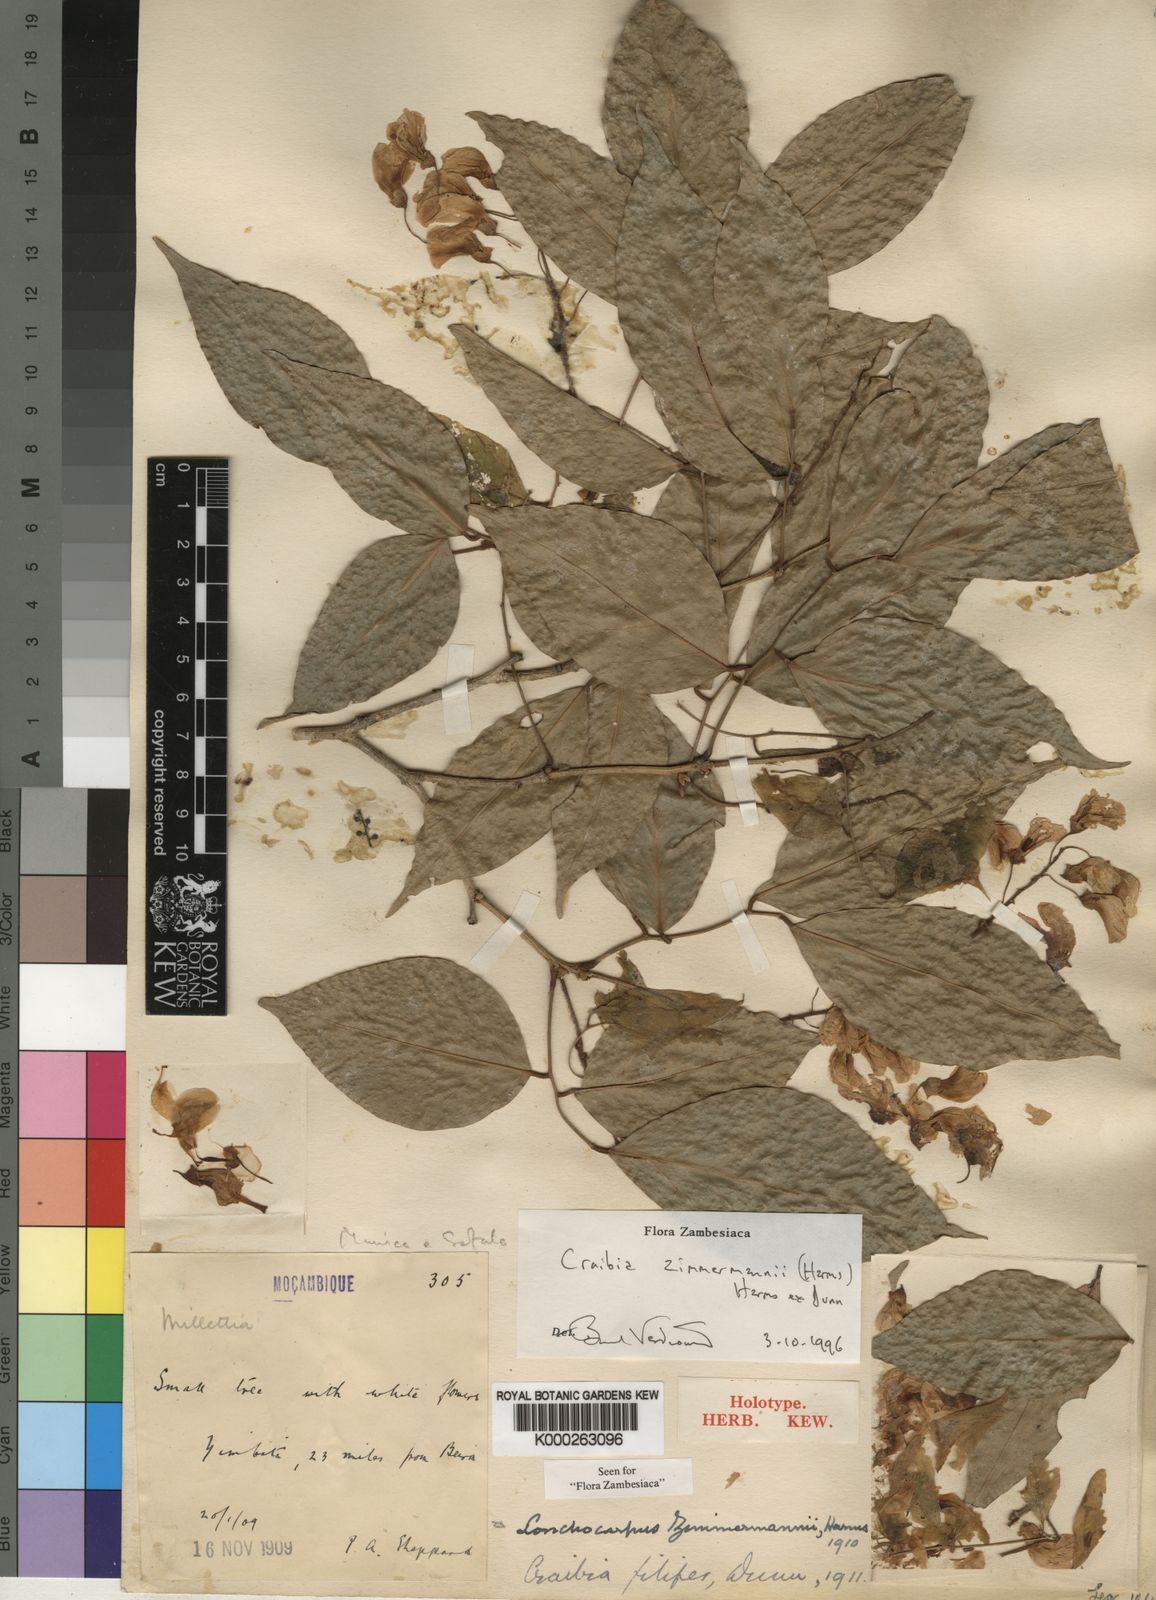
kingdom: Plantae
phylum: Tracheophyta
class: Magnoliopsida
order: Fabales
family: Fabaceae
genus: Craibia
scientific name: Craibia zimmermannii
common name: Sandforest pea-wood
